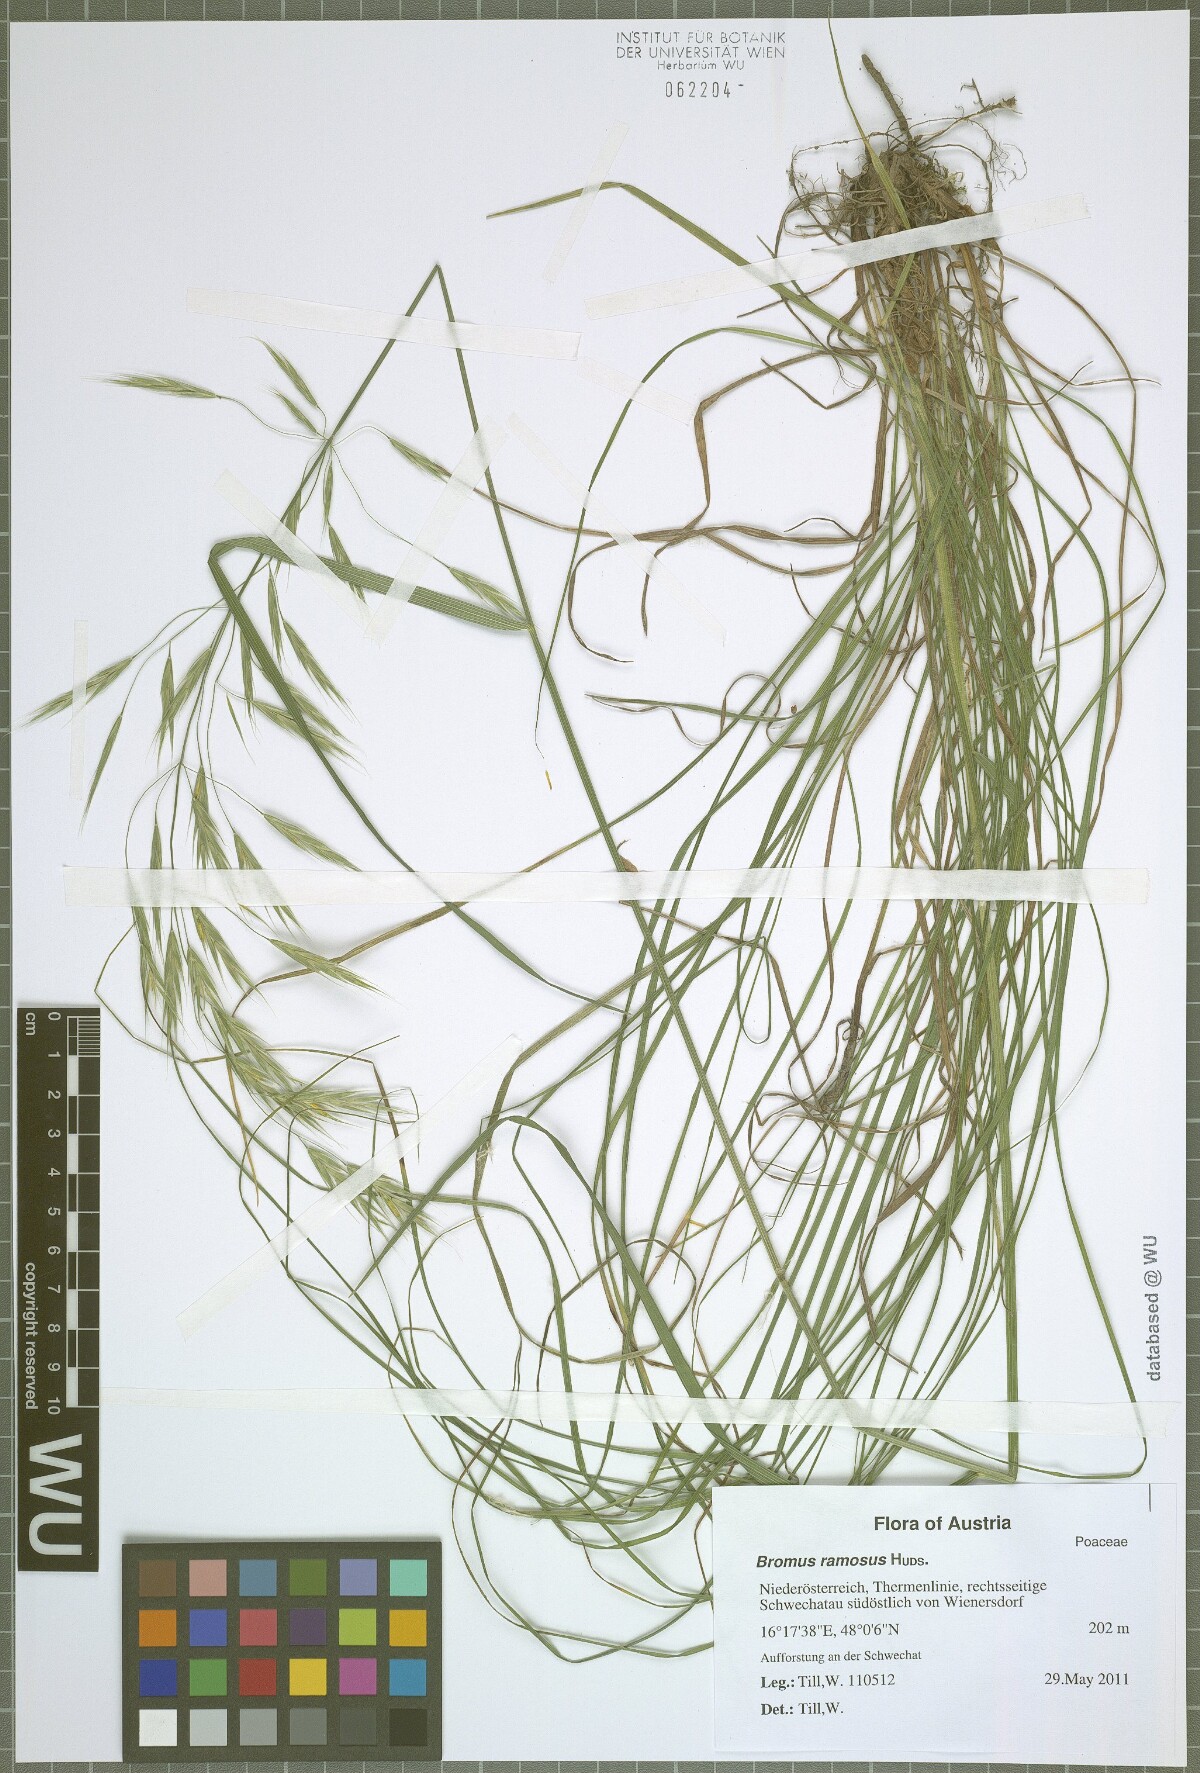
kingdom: Plantae
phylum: Tracheophyta
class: Liliopsida
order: Poales
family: Poaceae
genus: Bromus
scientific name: Bromus ramosus
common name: Hairy brome
